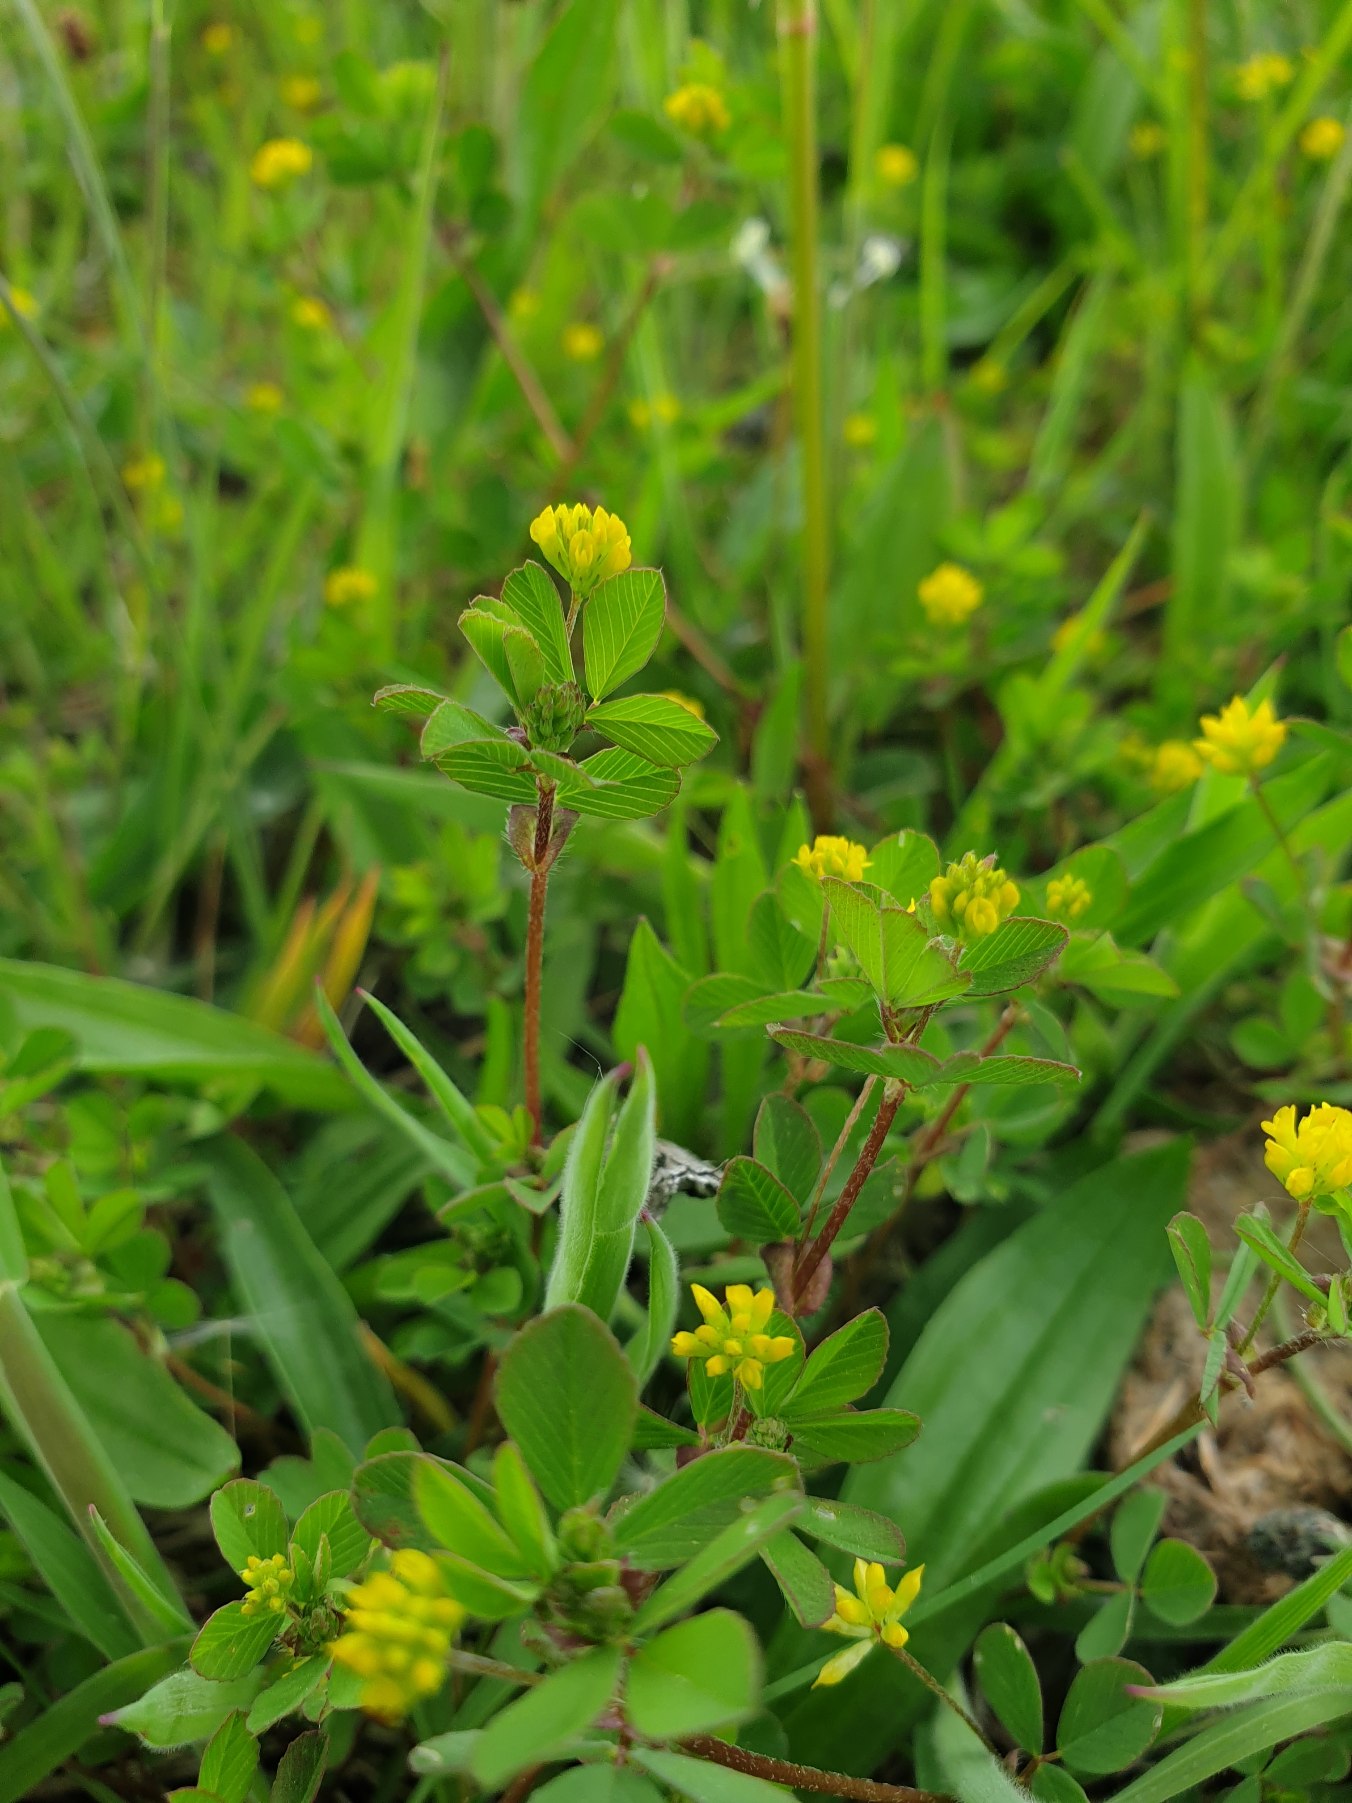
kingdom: Plantae
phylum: Tracheophyta
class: Magnoliopsida
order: Fabales
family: Fabaceae
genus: Medicago
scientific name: Medicago lupulina
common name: Humle-sneglebælg
